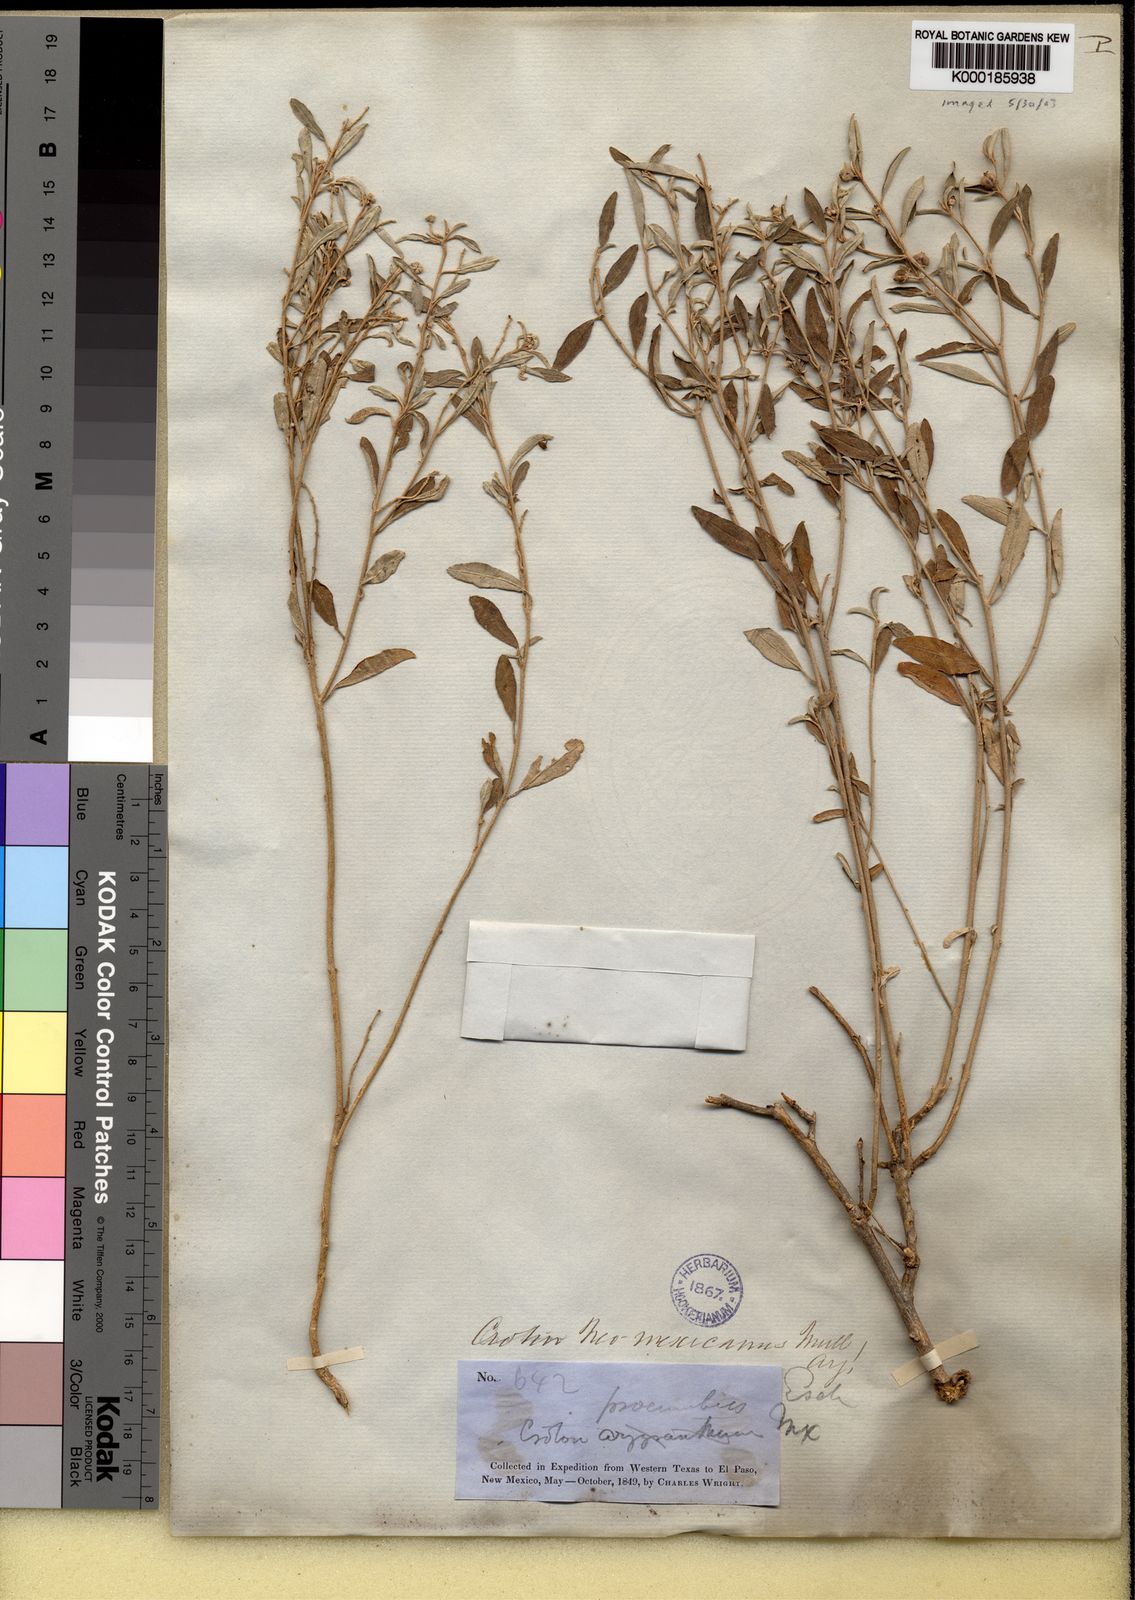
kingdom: Plantae
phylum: Tracheophyta
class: Magnoliopsida
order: Malpighiales
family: Euphorbiaceae
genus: Croton
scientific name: Croton dioicus
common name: Grassland croton
